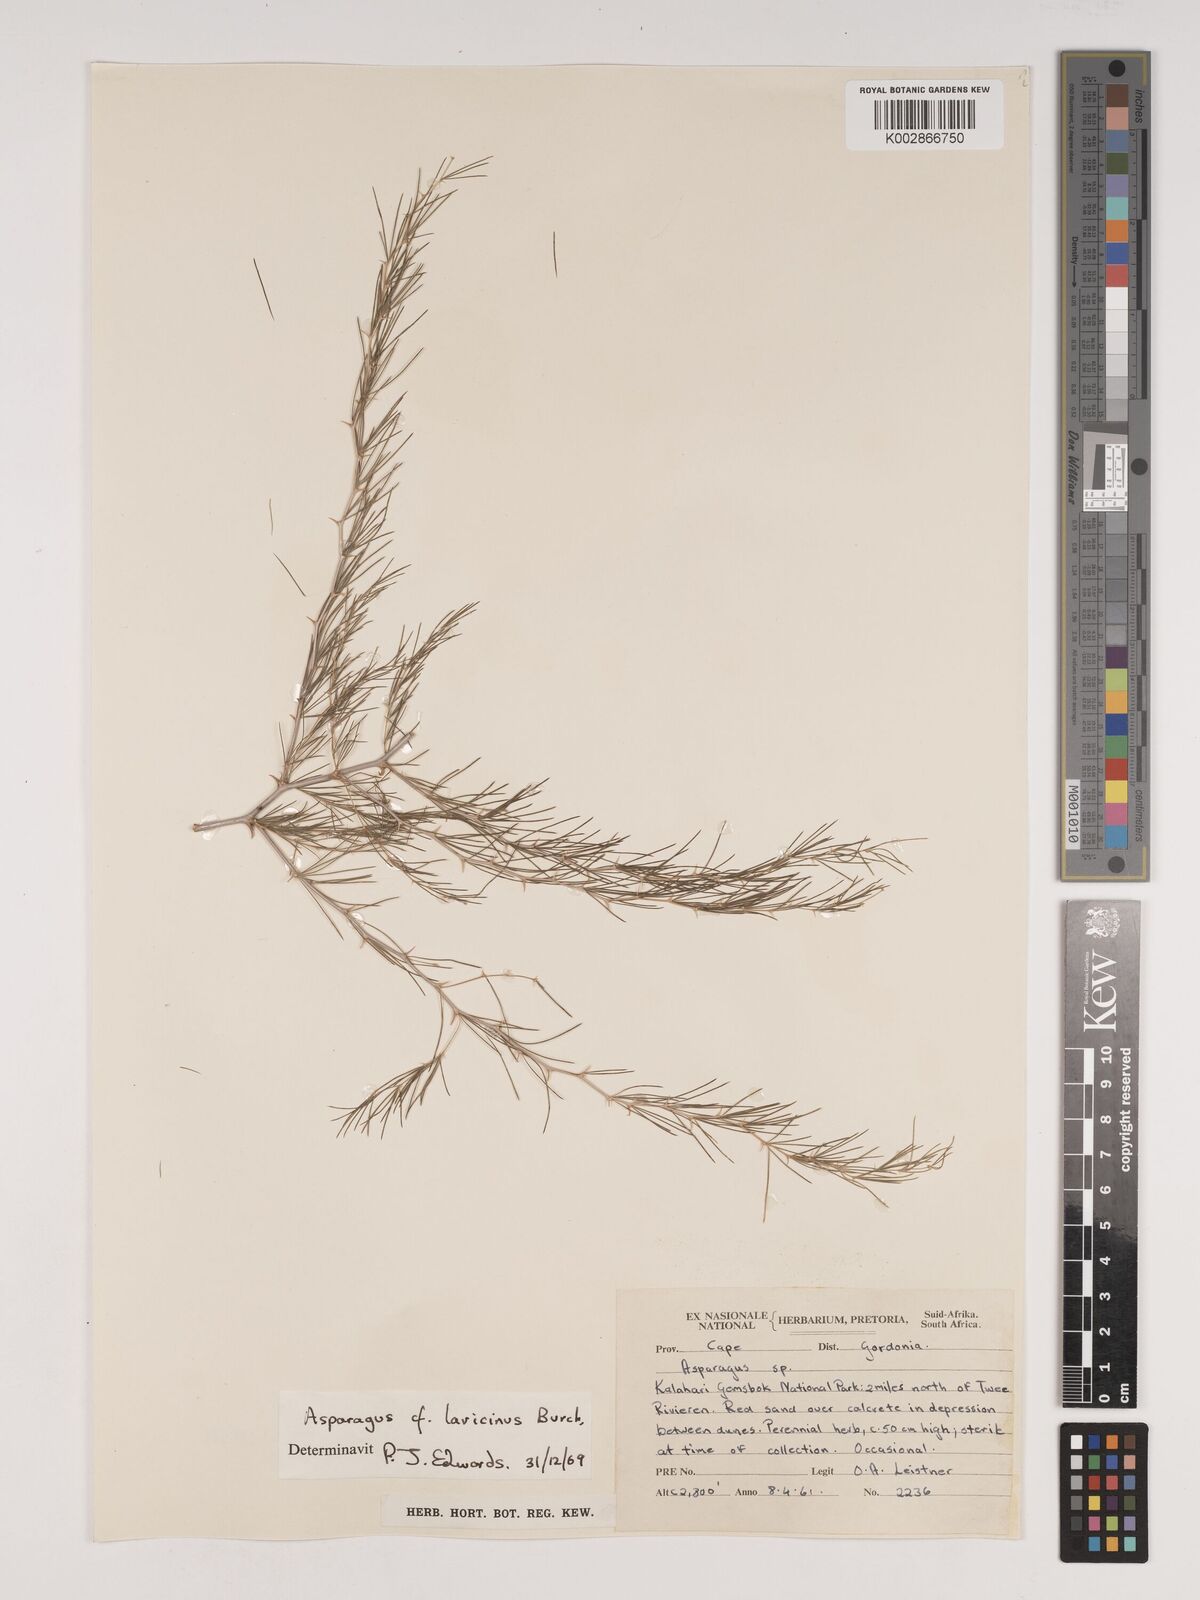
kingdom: Plantae
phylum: Tracheophyta
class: Liliopsida
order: Asparagales
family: Asparagaceae
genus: Asparagus
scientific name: Asparagus laricinus
